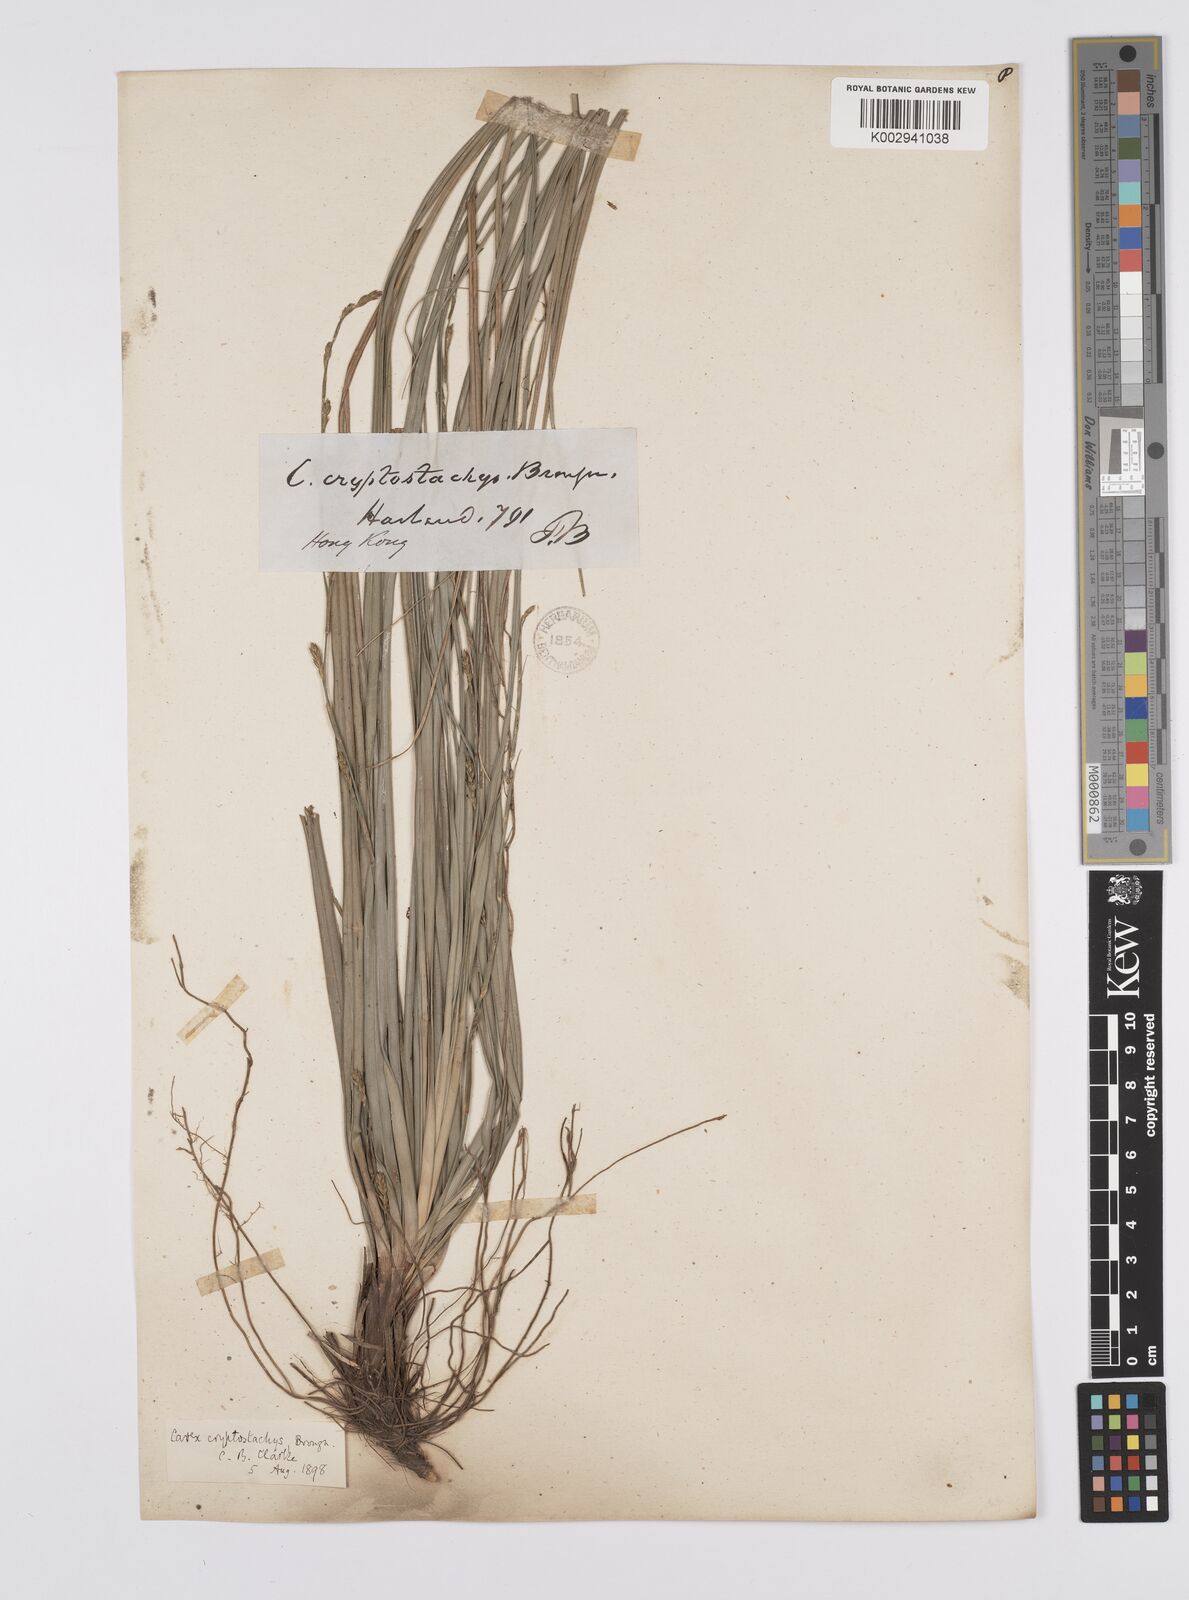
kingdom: Plantae
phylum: Tracheophyta
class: Liliopsida
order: Poales
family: Cyperaceae
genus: Carex
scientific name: Carex cryptostachys
